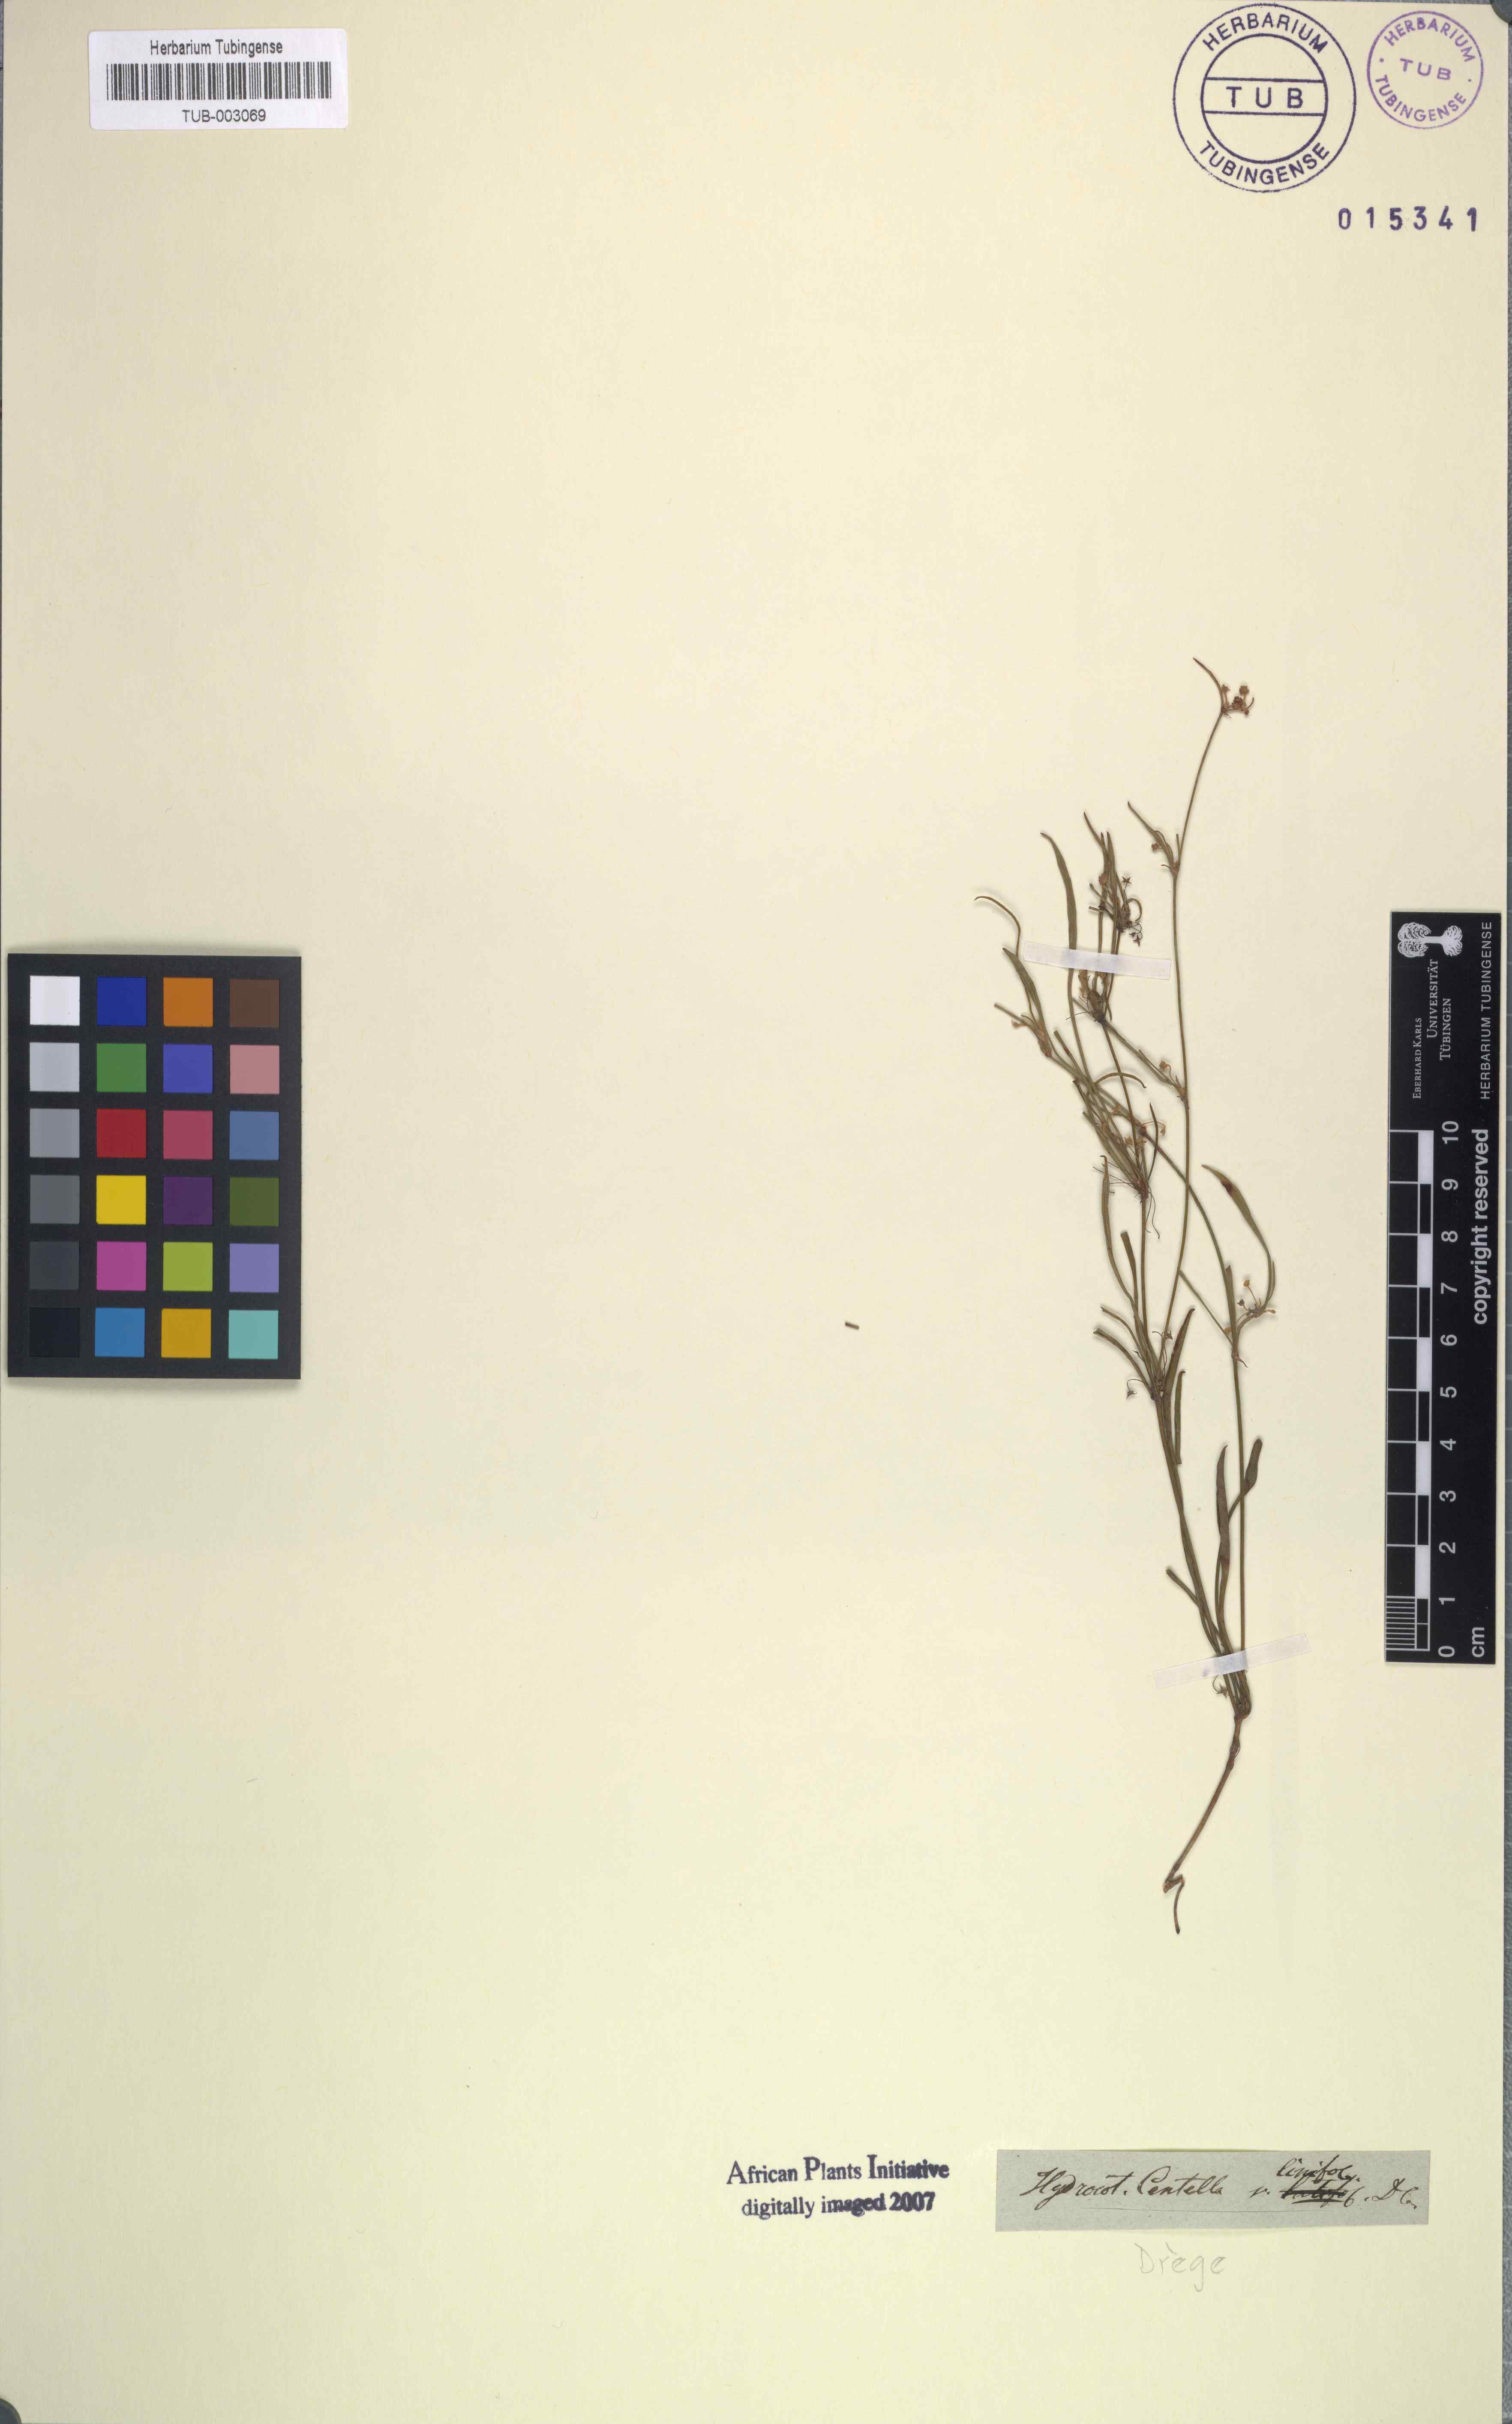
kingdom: Plantae
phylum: Tracheophyta
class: Magnoliopsida
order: Apiales
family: Apiaceae
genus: Centella
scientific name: Centella glabrata
